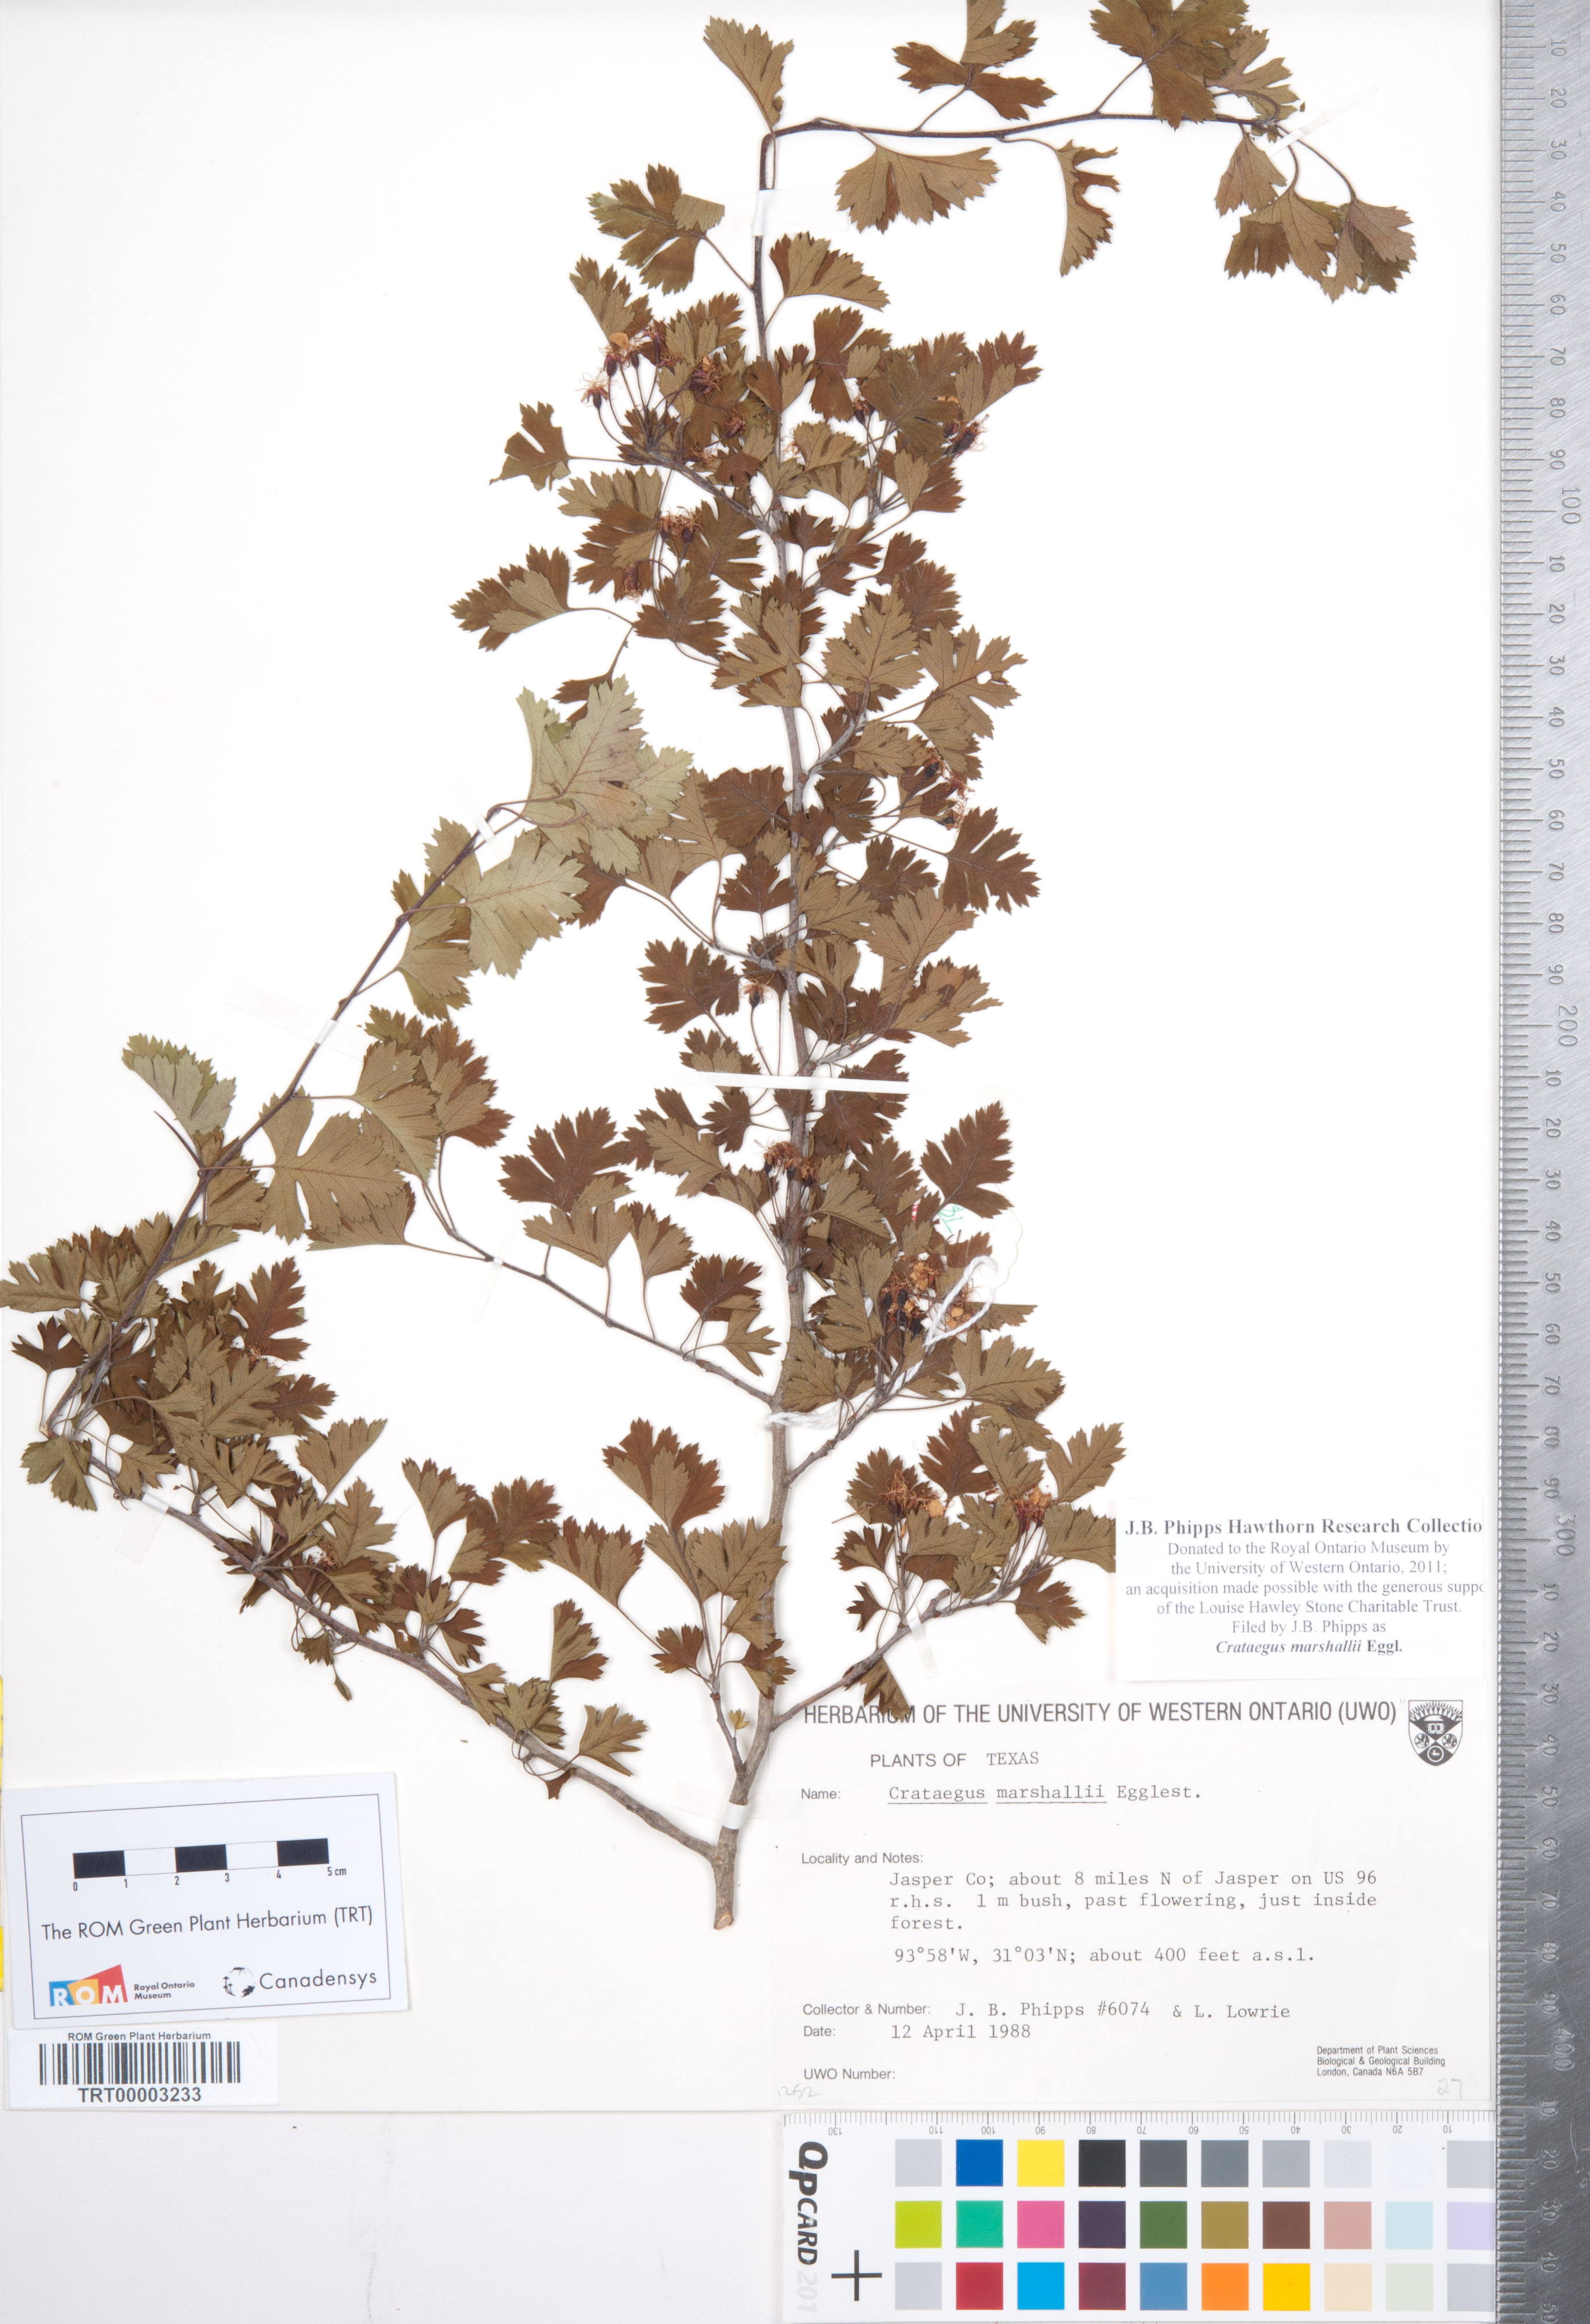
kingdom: Plantae
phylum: Tracheophyta
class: Magnoliopsida
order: Rosales
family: Rosaceae
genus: Crataegus
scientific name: Crataegus marshallii
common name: Parsley-hawthorn
